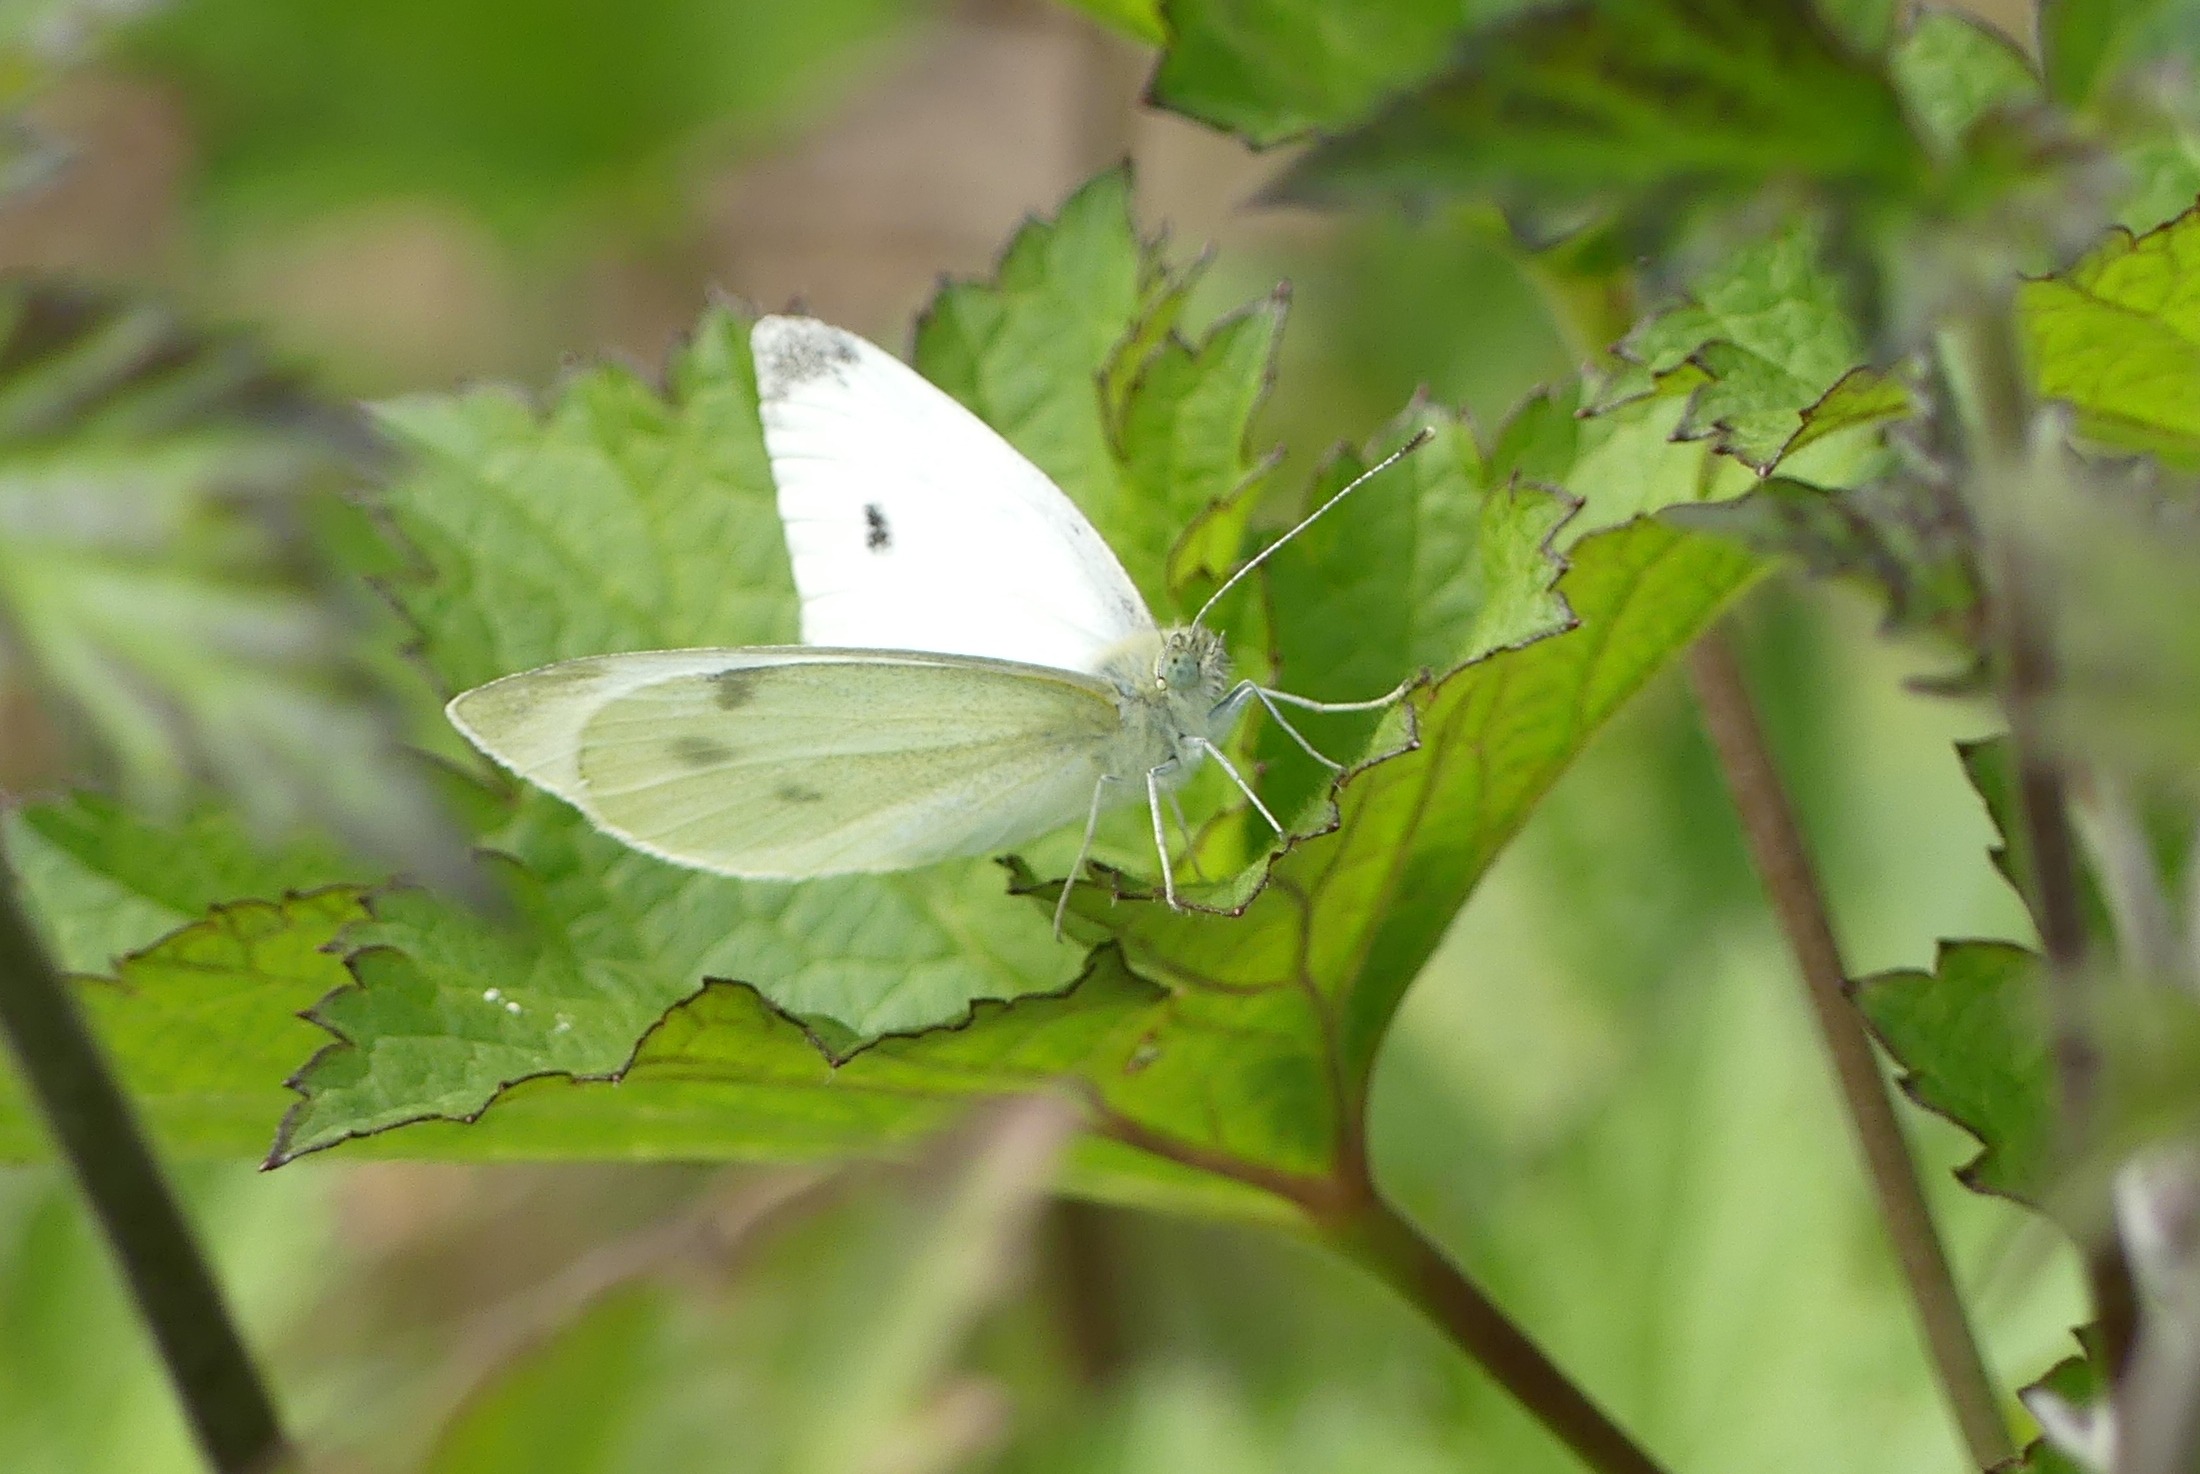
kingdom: Animalia
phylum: Arthropoda
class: Insecta
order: Lepidoptera
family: Pieridae
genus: Pieris
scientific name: Pieris rapae
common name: Lille kålsommerfugl
